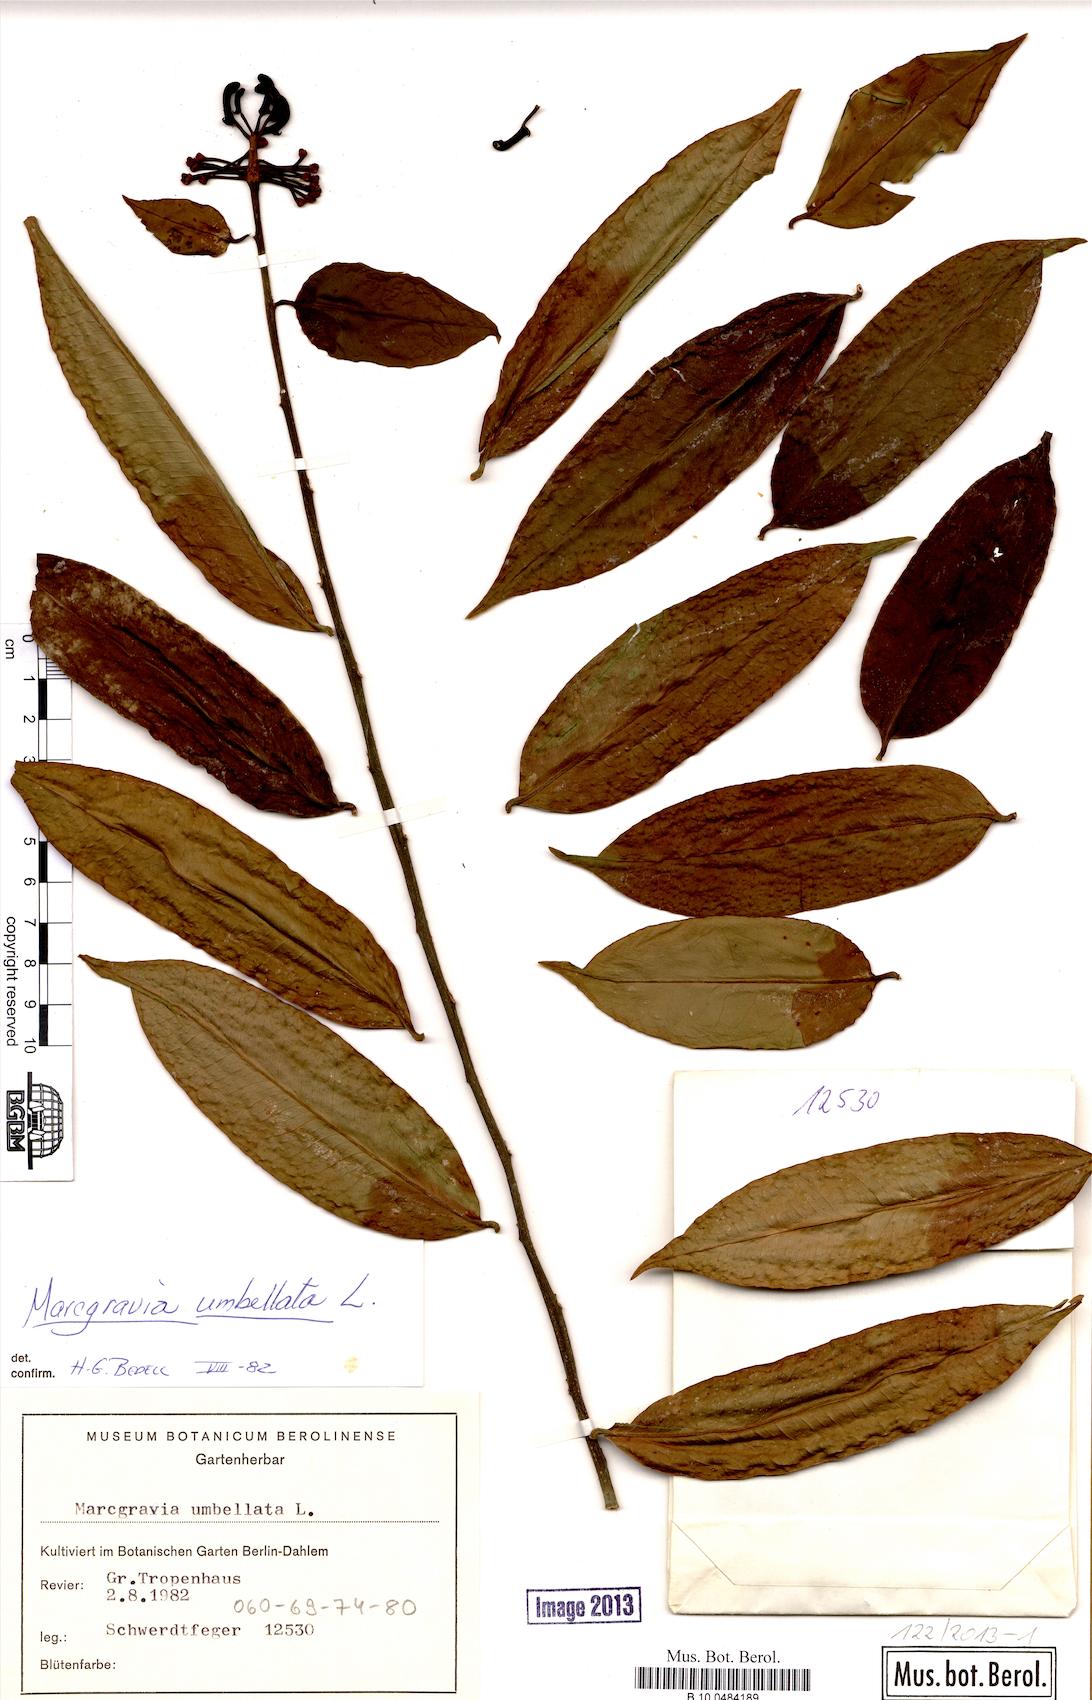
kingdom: Plantae
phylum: Tracheophyta
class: Magnoliopsida
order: Ericales
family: Marcgraviaceae
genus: Marcgravia
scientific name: Marcgravia umbellata
